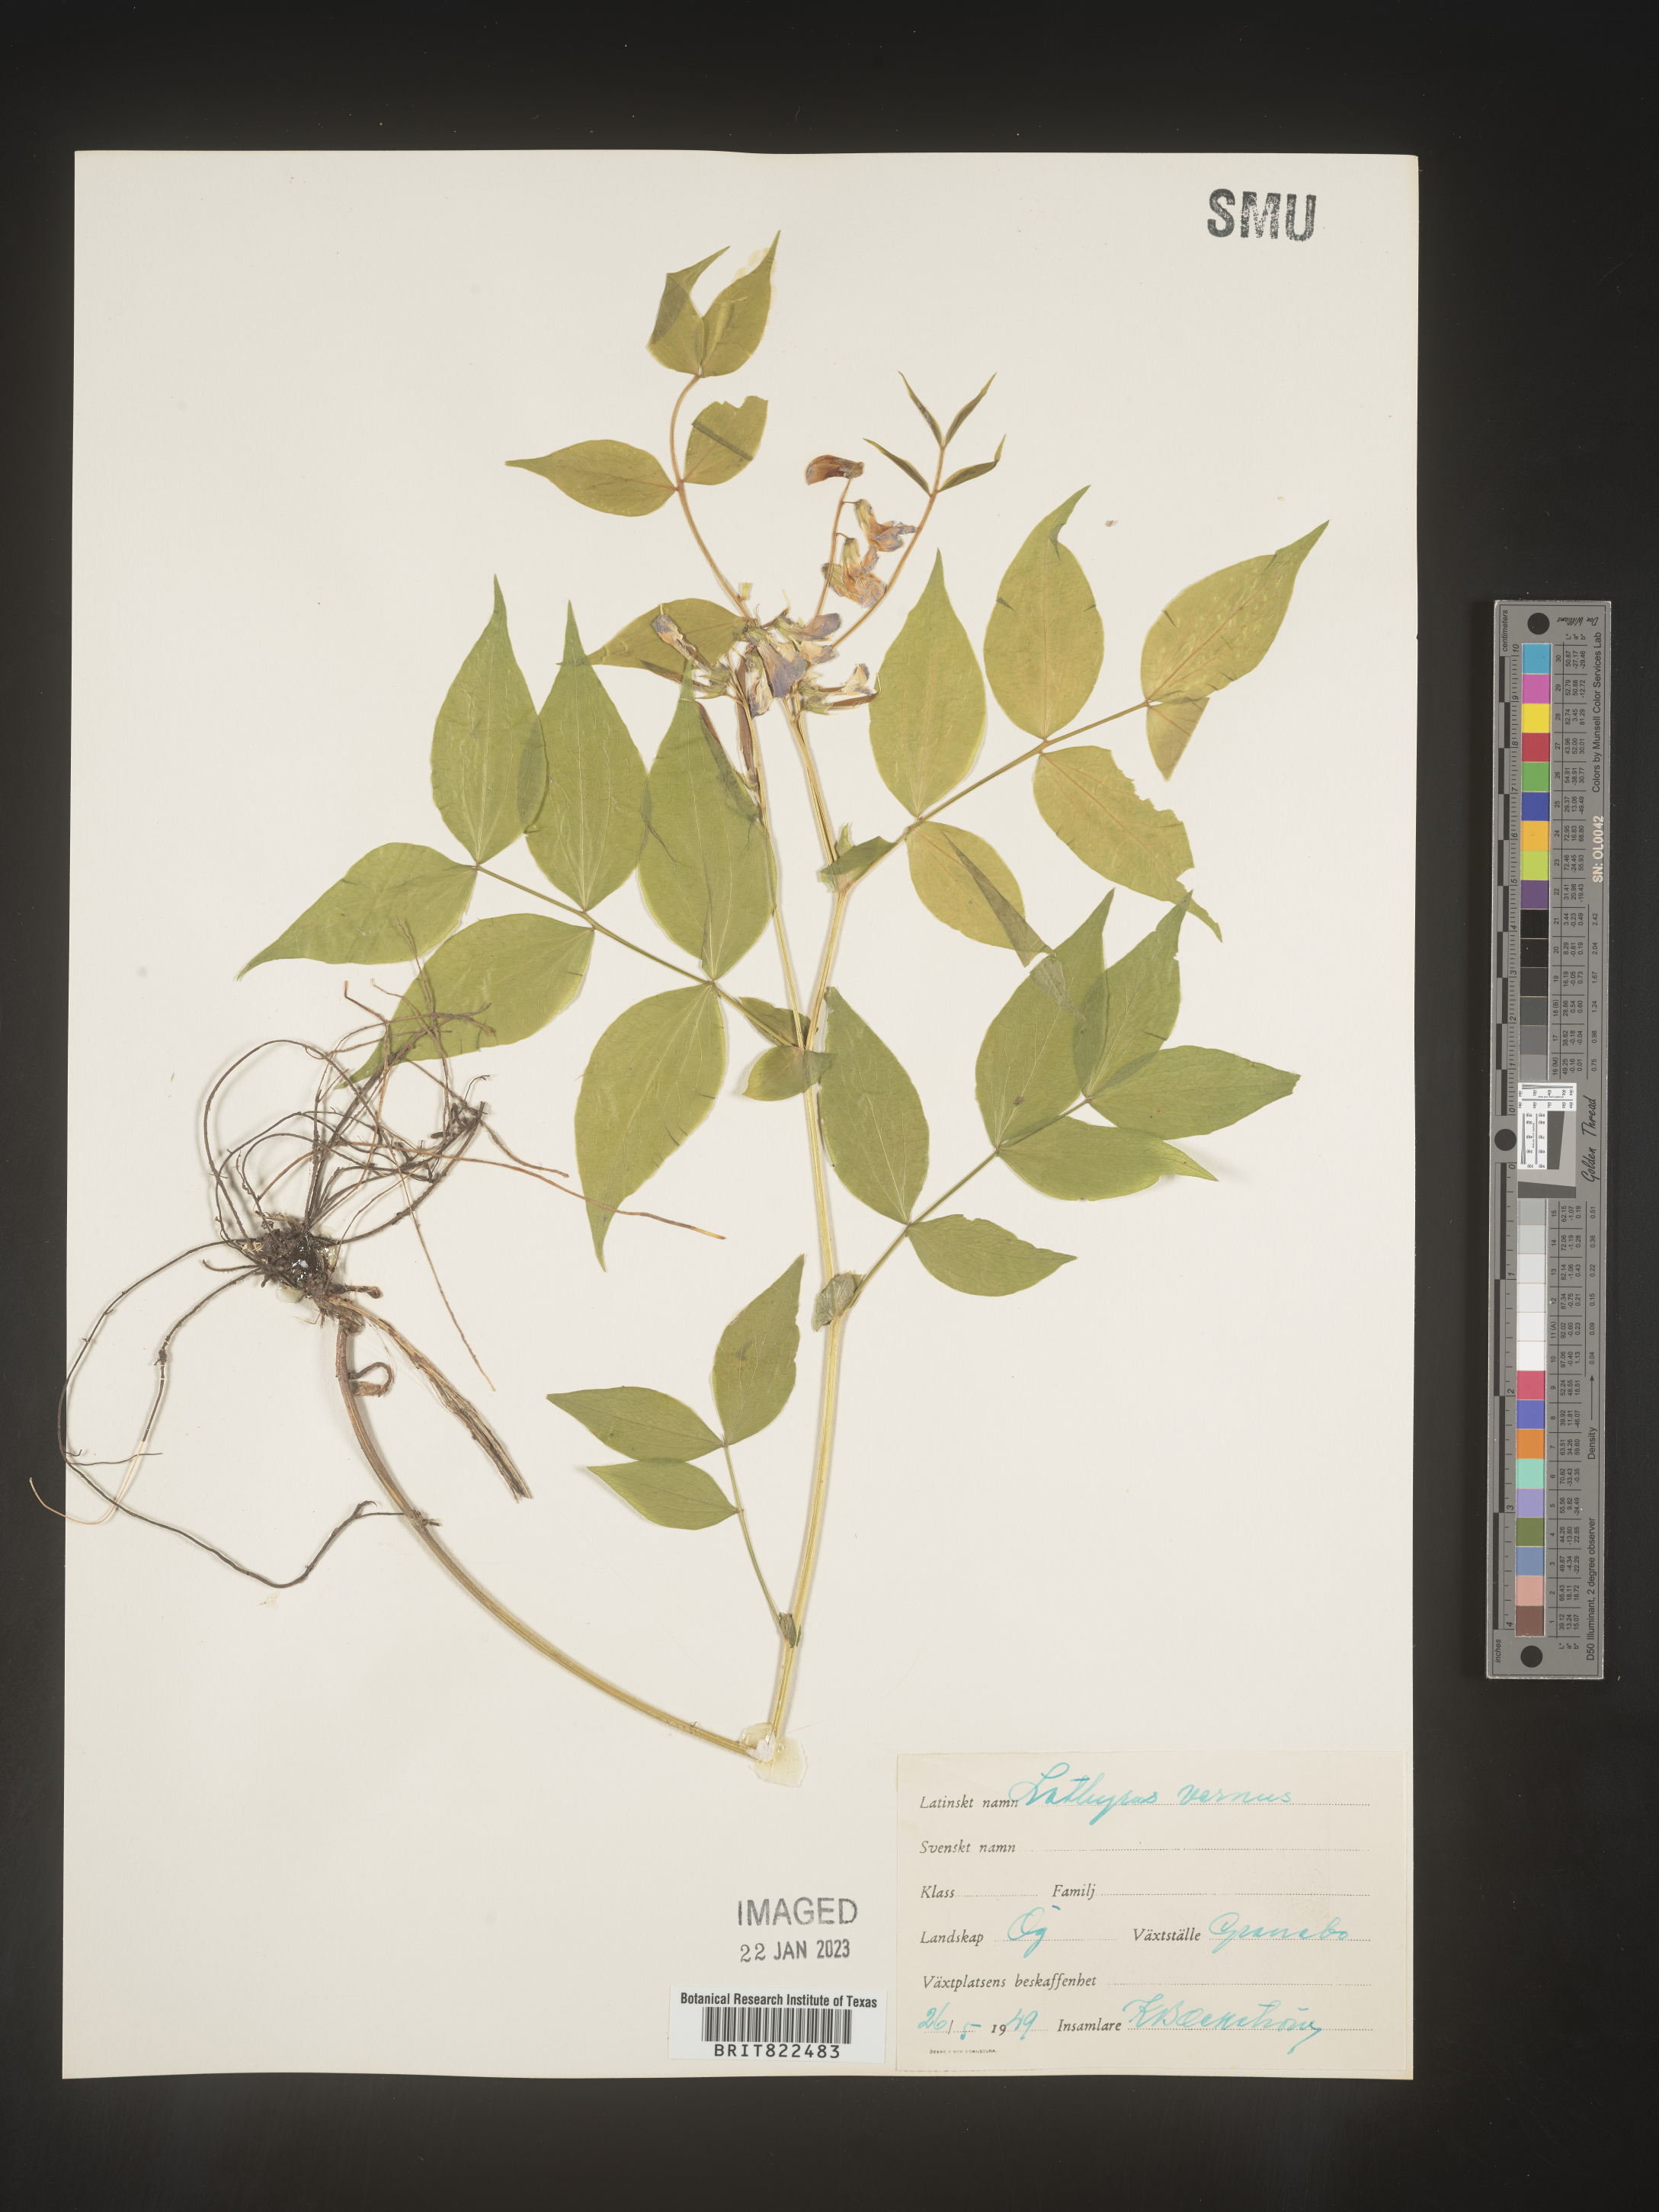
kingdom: Plantae
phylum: Tracheophyta
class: Magnoliopsida
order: Fabales
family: Fabaceae
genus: Lathyrus
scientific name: Lathyrus
